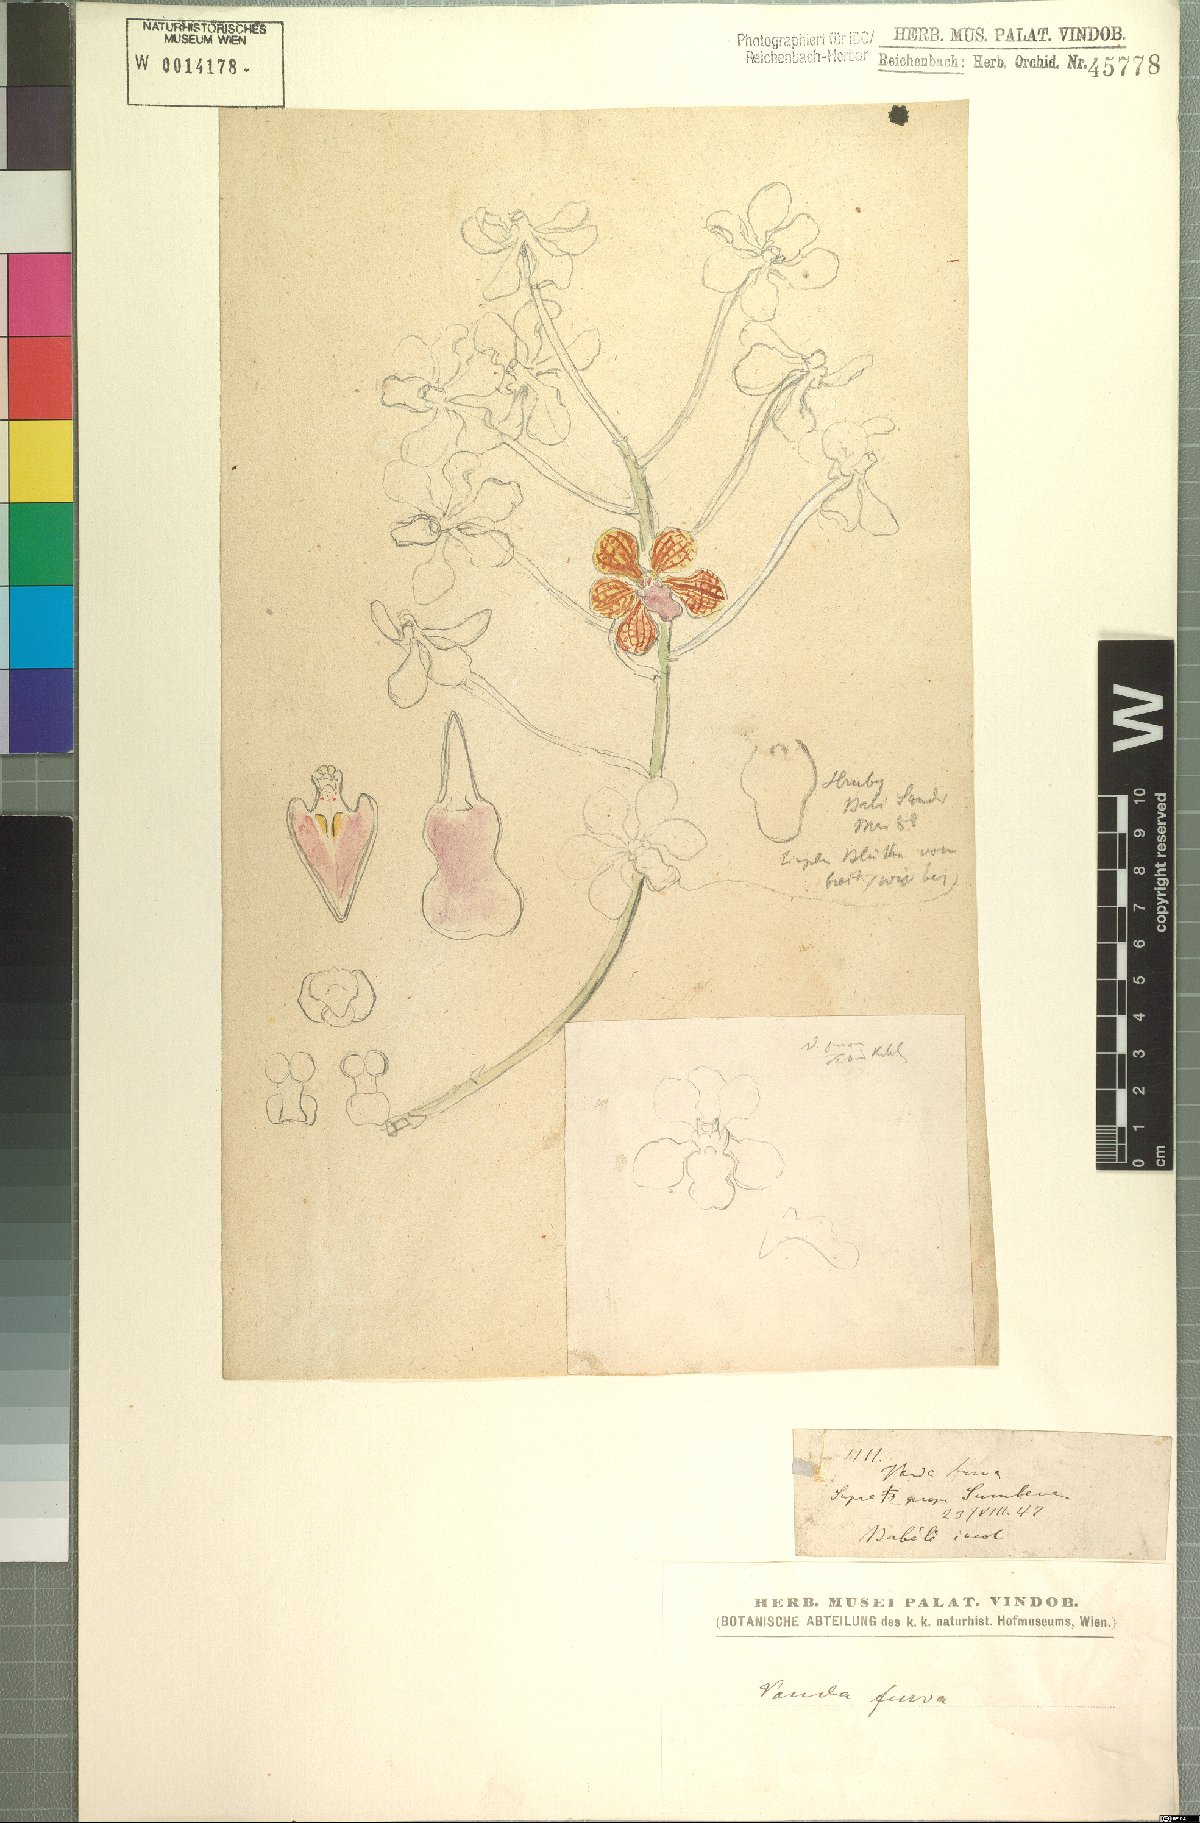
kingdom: Plantae
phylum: Tracheophyta
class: Liliopsida
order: Asparagales
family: Orchidaceae
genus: Vanda
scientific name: Vanda furva
